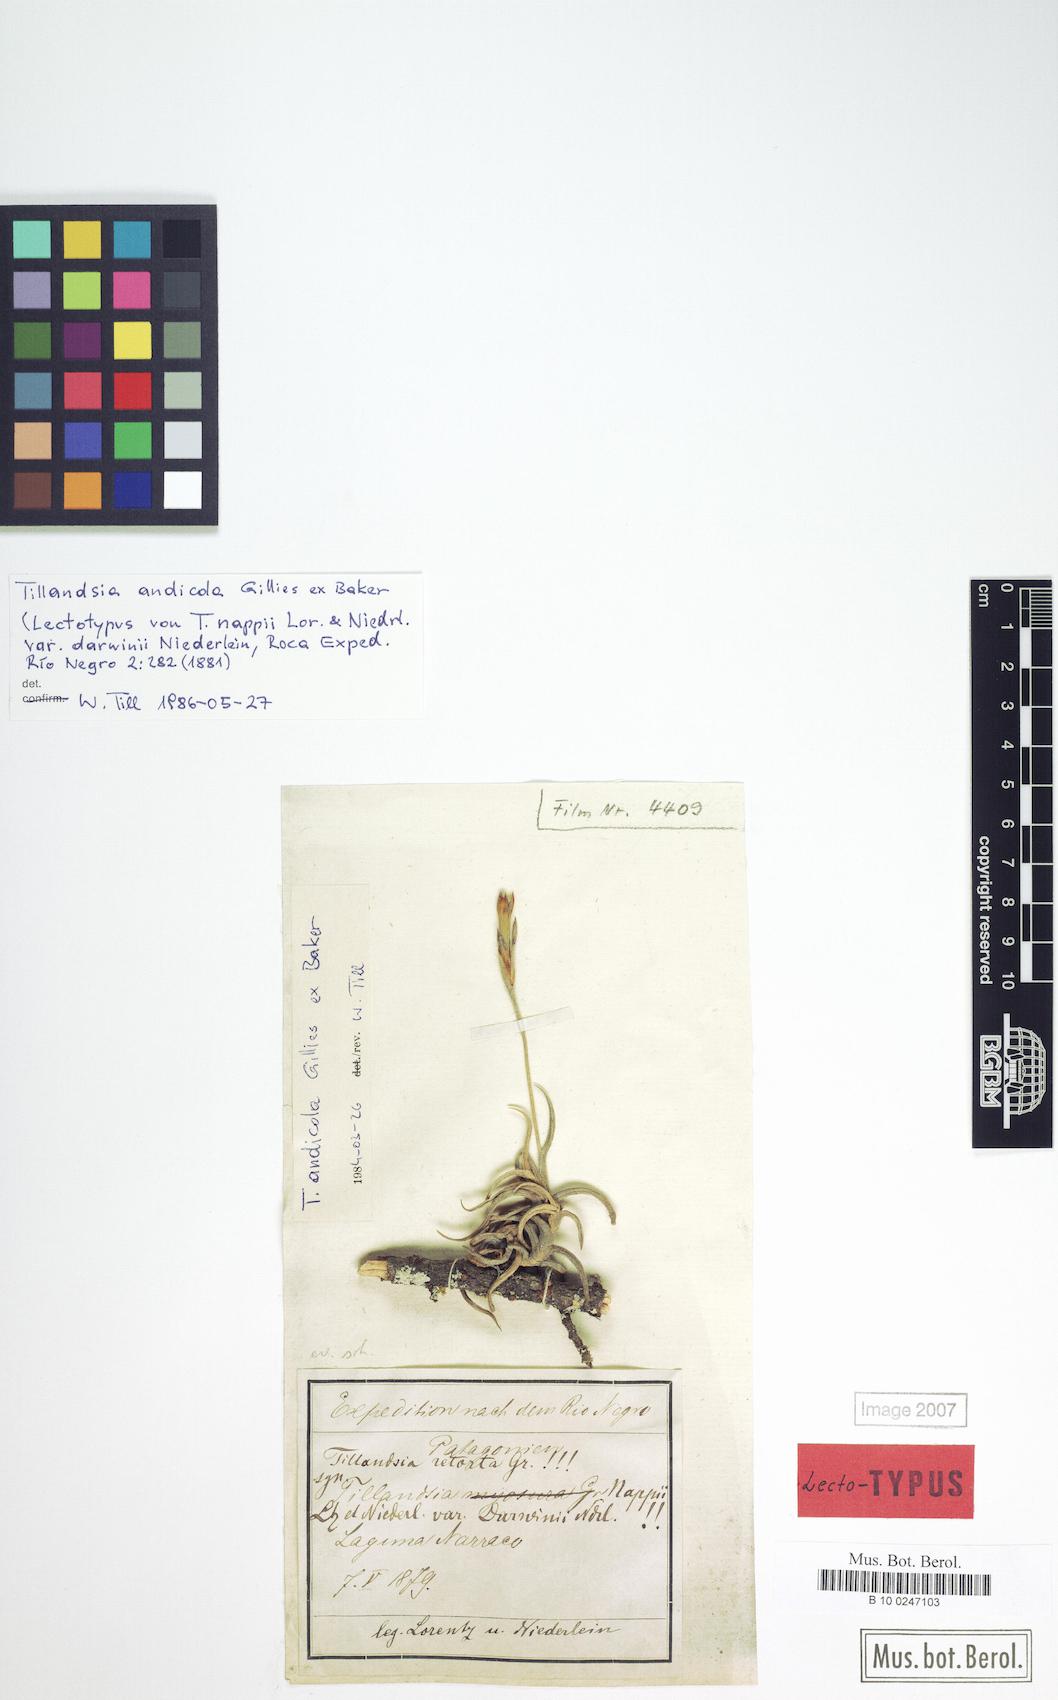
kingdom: Plantae
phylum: Tracheophyta
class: Liliopsida
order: Poales
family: Bromeliaceae
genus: Tillandsia
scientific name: Tillandsia andicola
